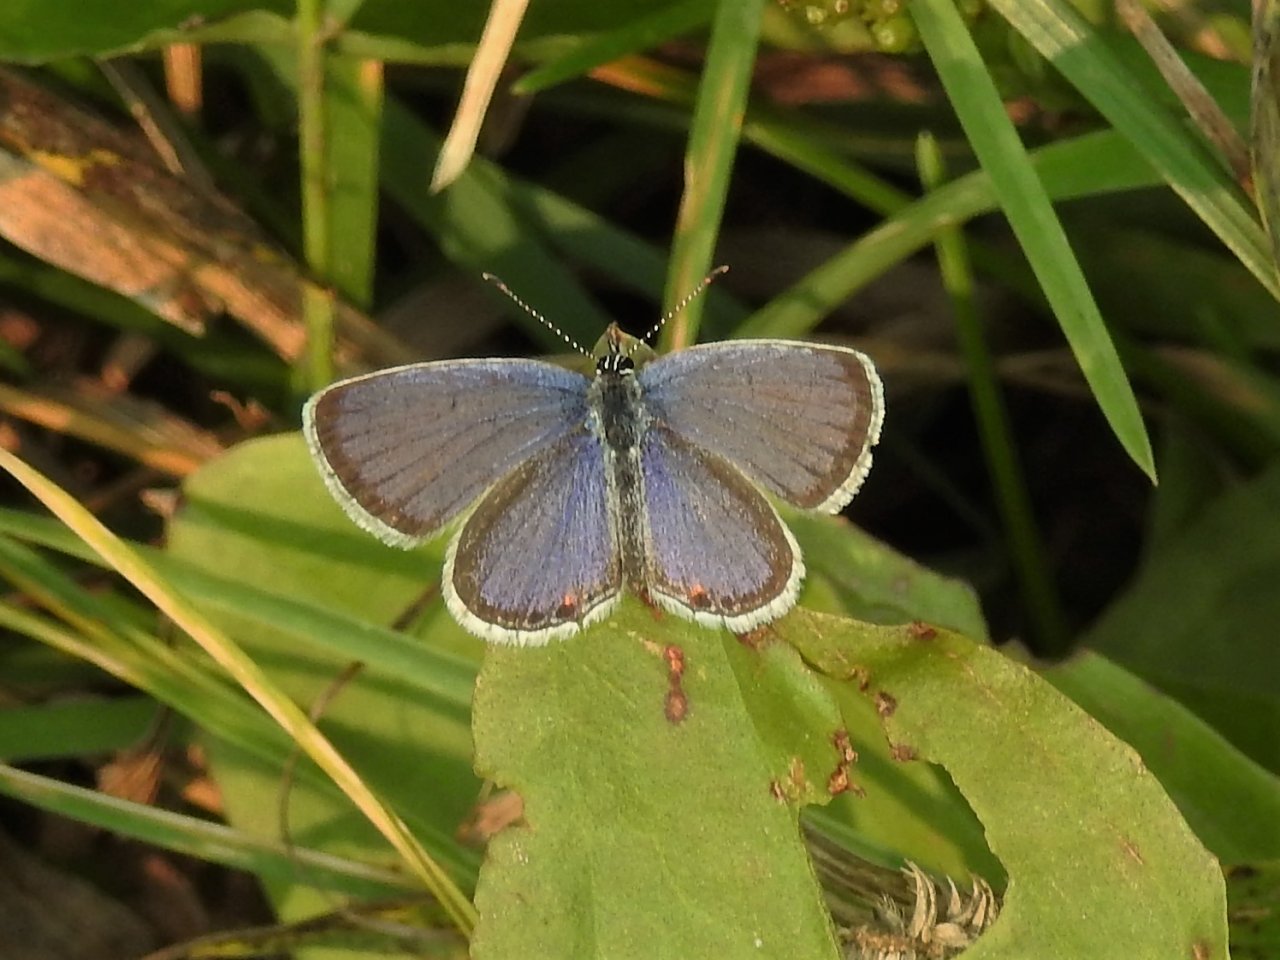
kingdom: Animalia
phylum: Arthropoda
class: Insecta
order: Lepidoptera
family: Lycaenidae
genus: Elkalyce
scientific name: Elkalyce comyntas
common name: Eastern Tailed-Blue
